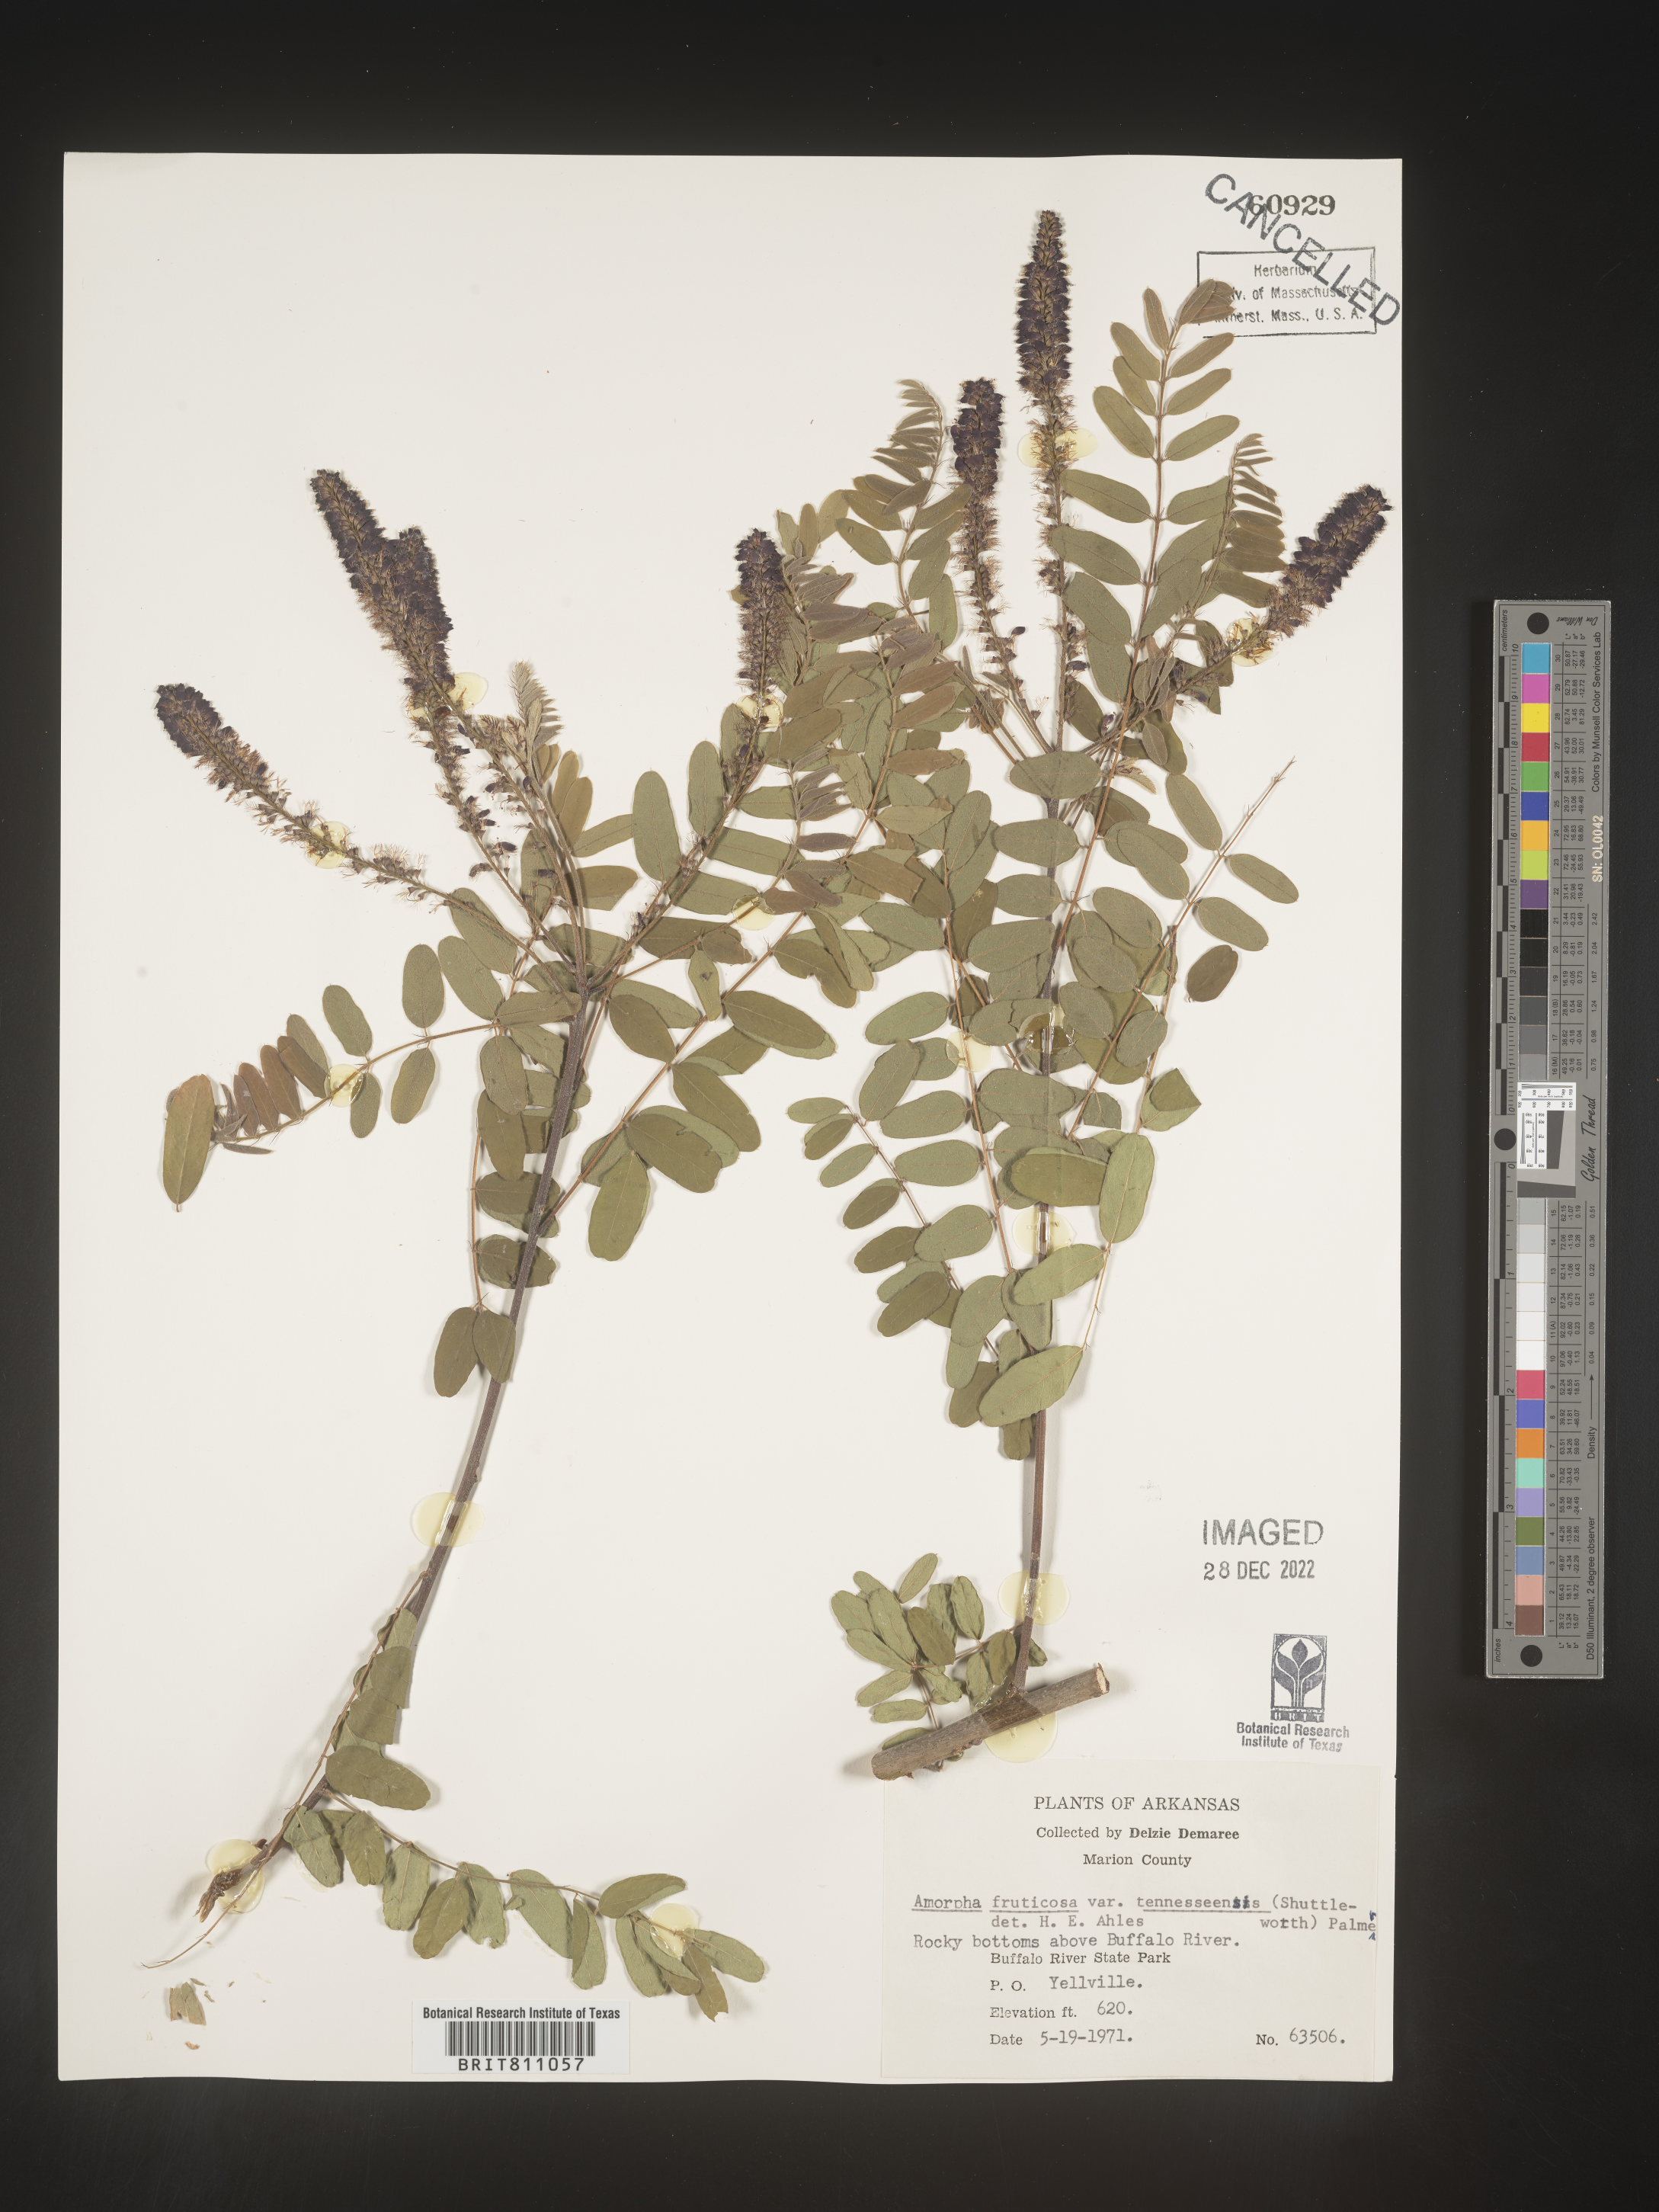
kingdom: Plantae
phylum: Tracheophyta
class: Magnoliopsida
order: Fabales
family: Fabaceae
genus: Amorpha
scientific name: Amorpha fruticosa
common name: False indigo
